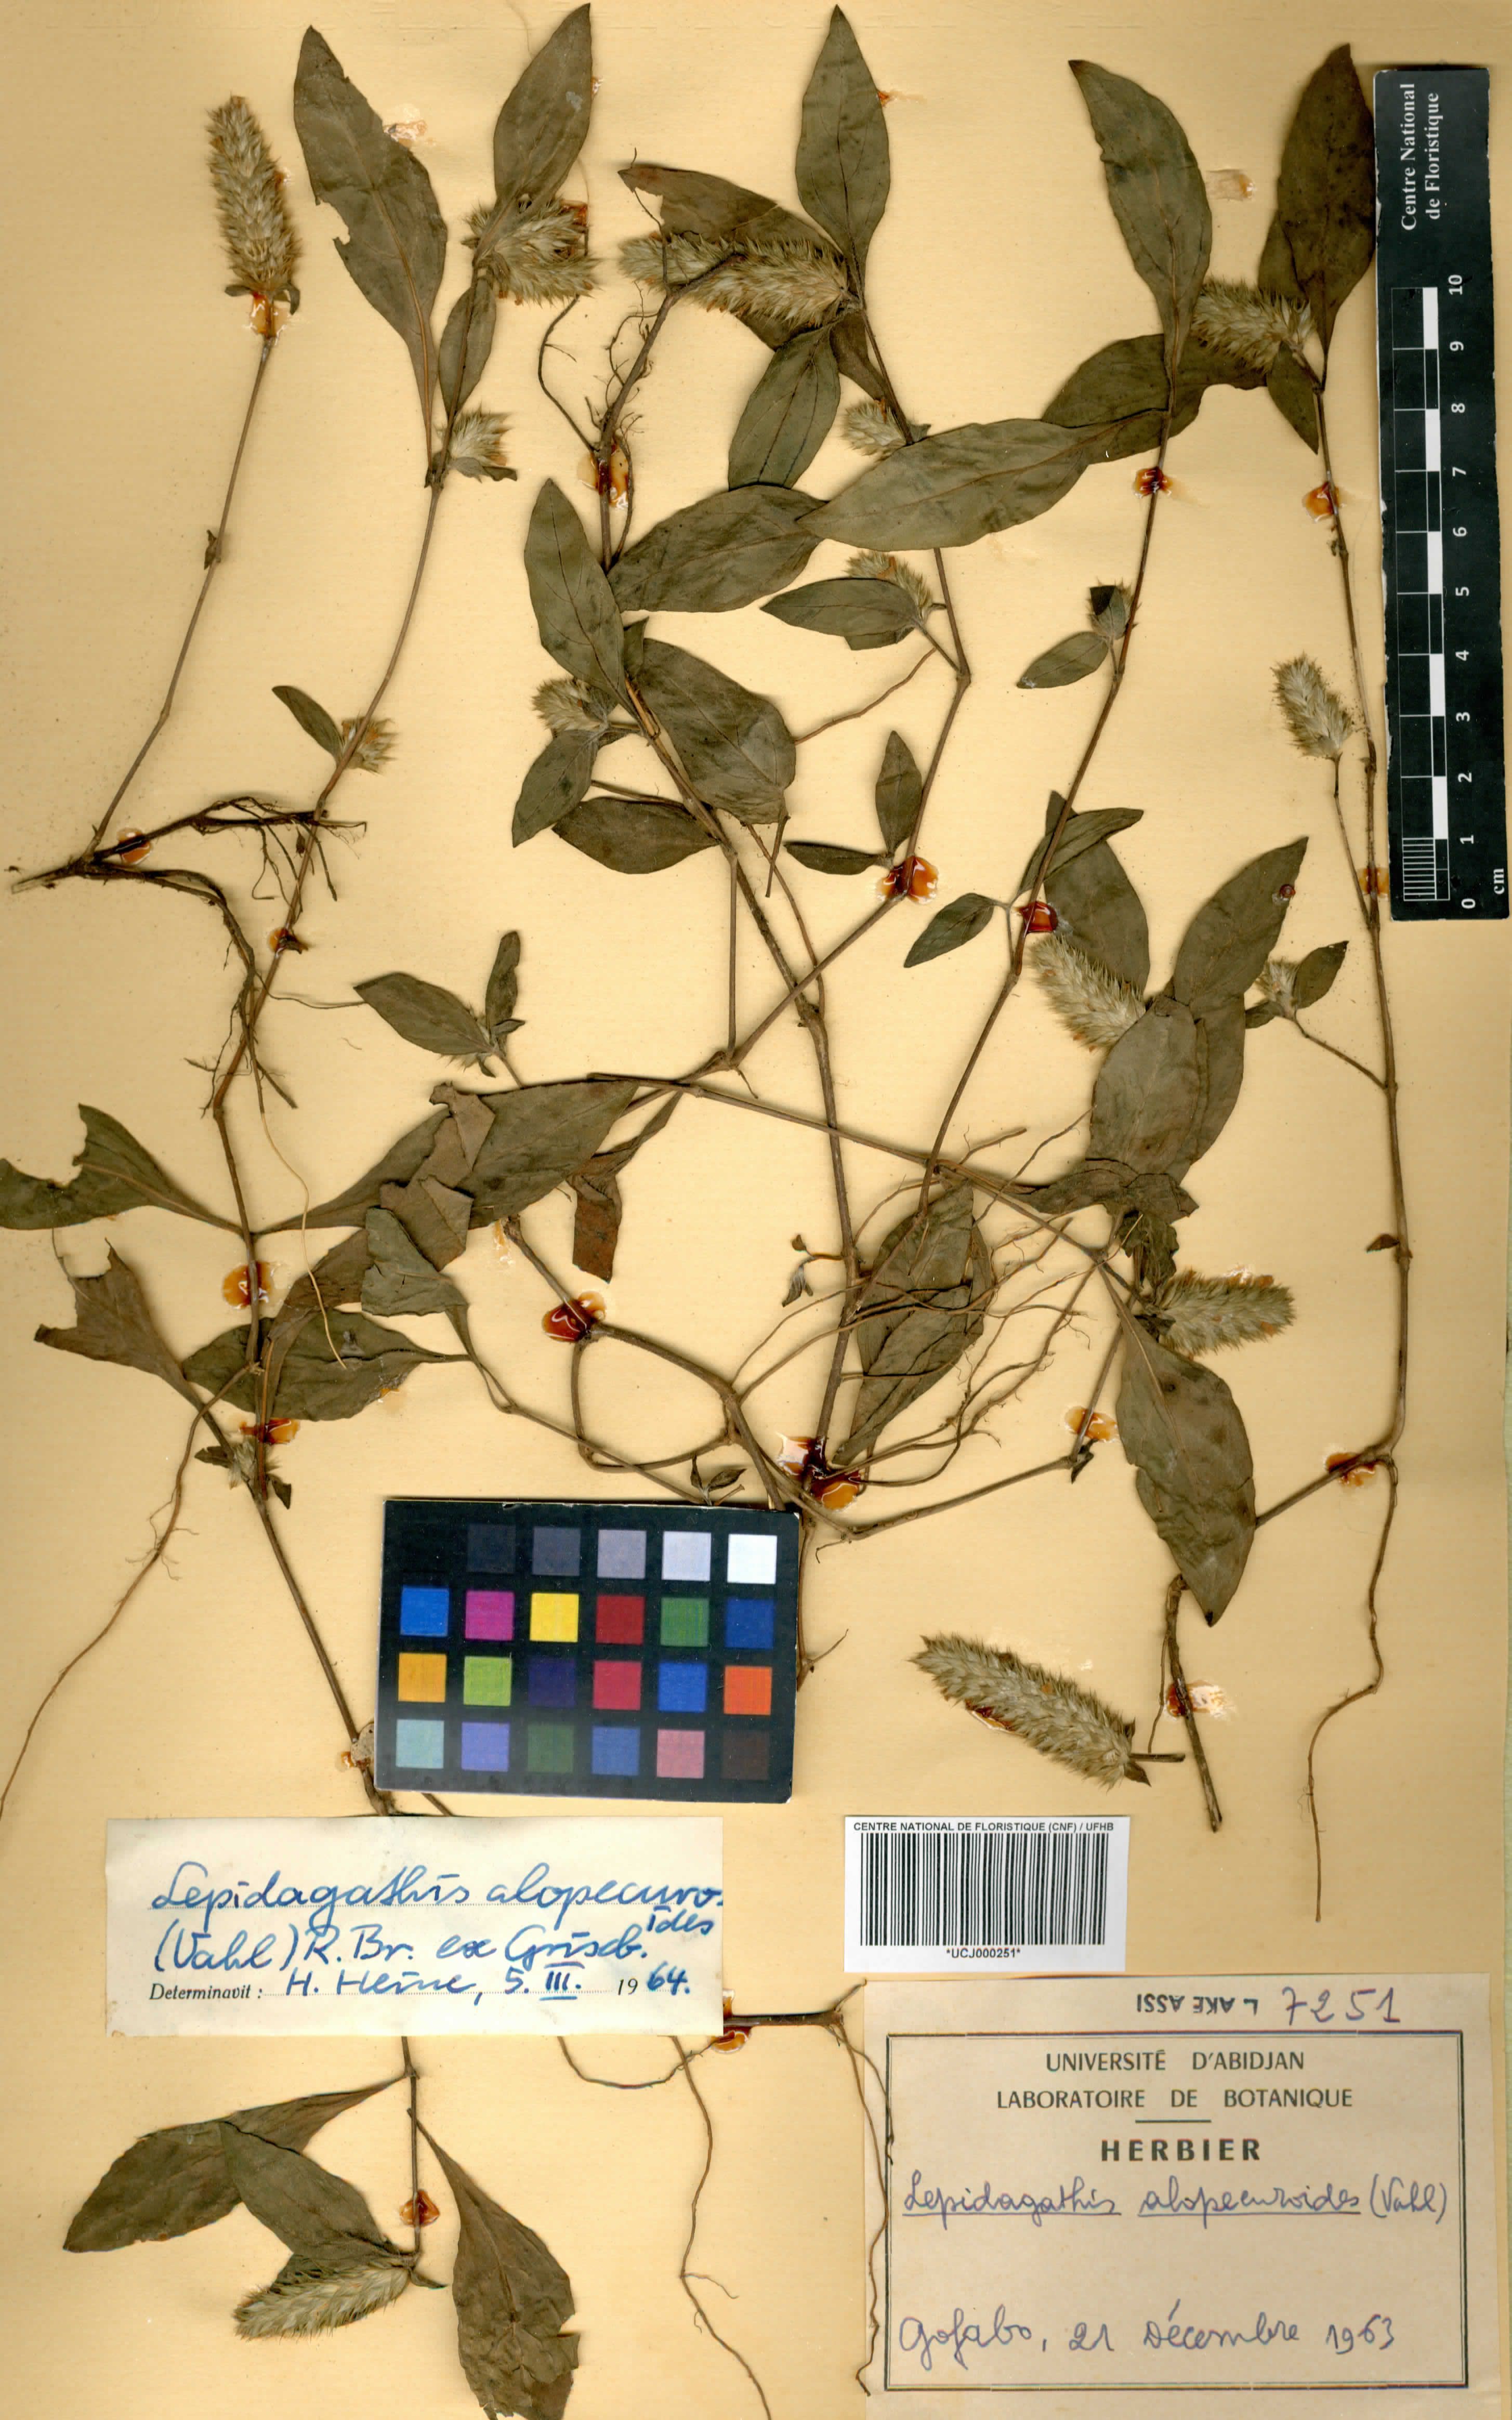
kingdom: Plantae
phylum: Tracheophyta
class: Magnoliopsida
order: Lamiales
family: Acanthaceae
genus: Lepidagathis
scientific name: Lepidagathis alopecuroidea
